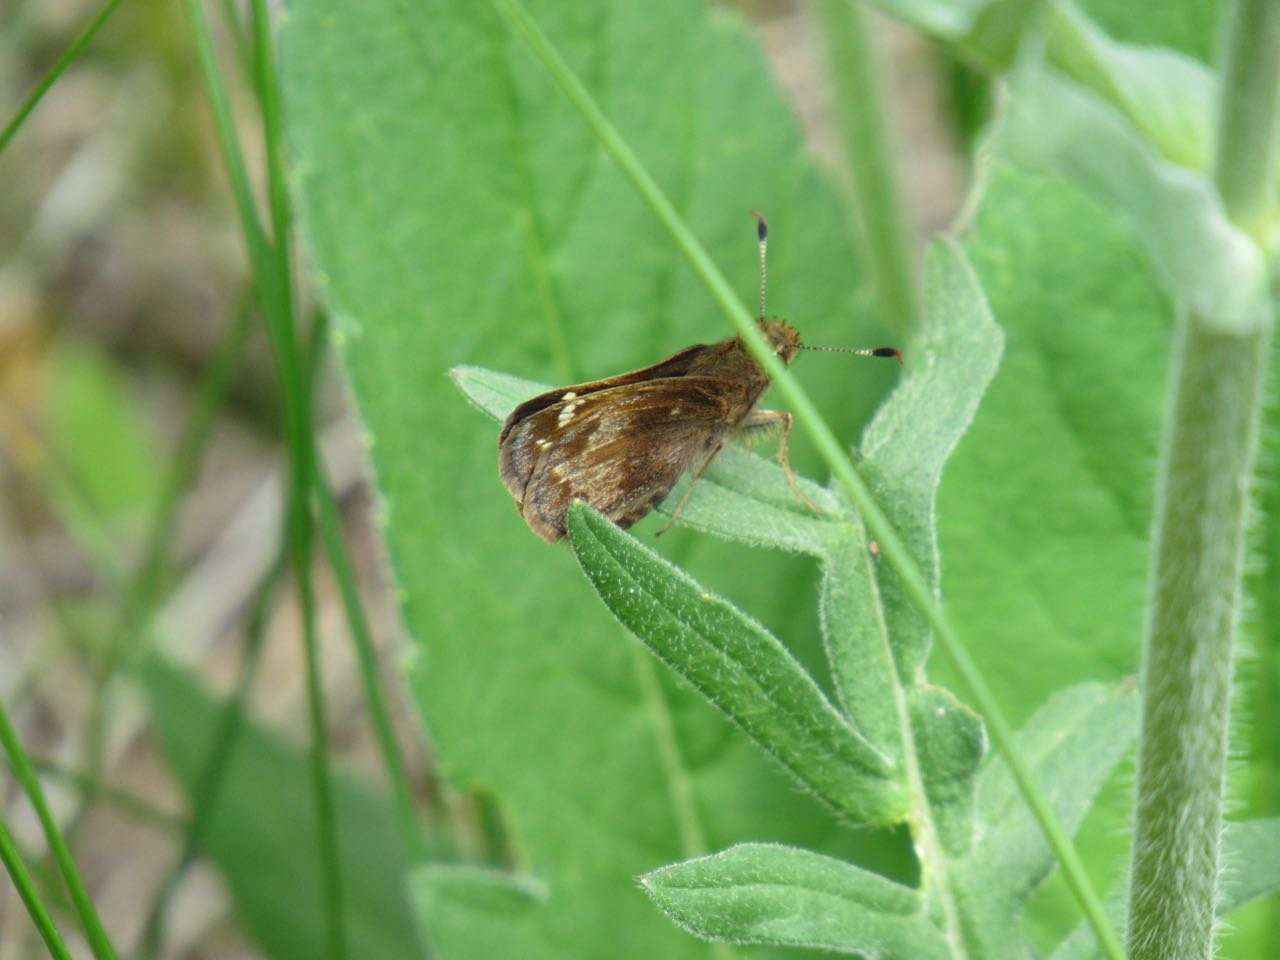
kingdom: Animalia
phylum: Arthropoda
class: Insecta
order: Lepidoptera
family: Hesperiidae
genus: Lon
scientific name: Lon hobomok
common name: Hobomok Skipper
